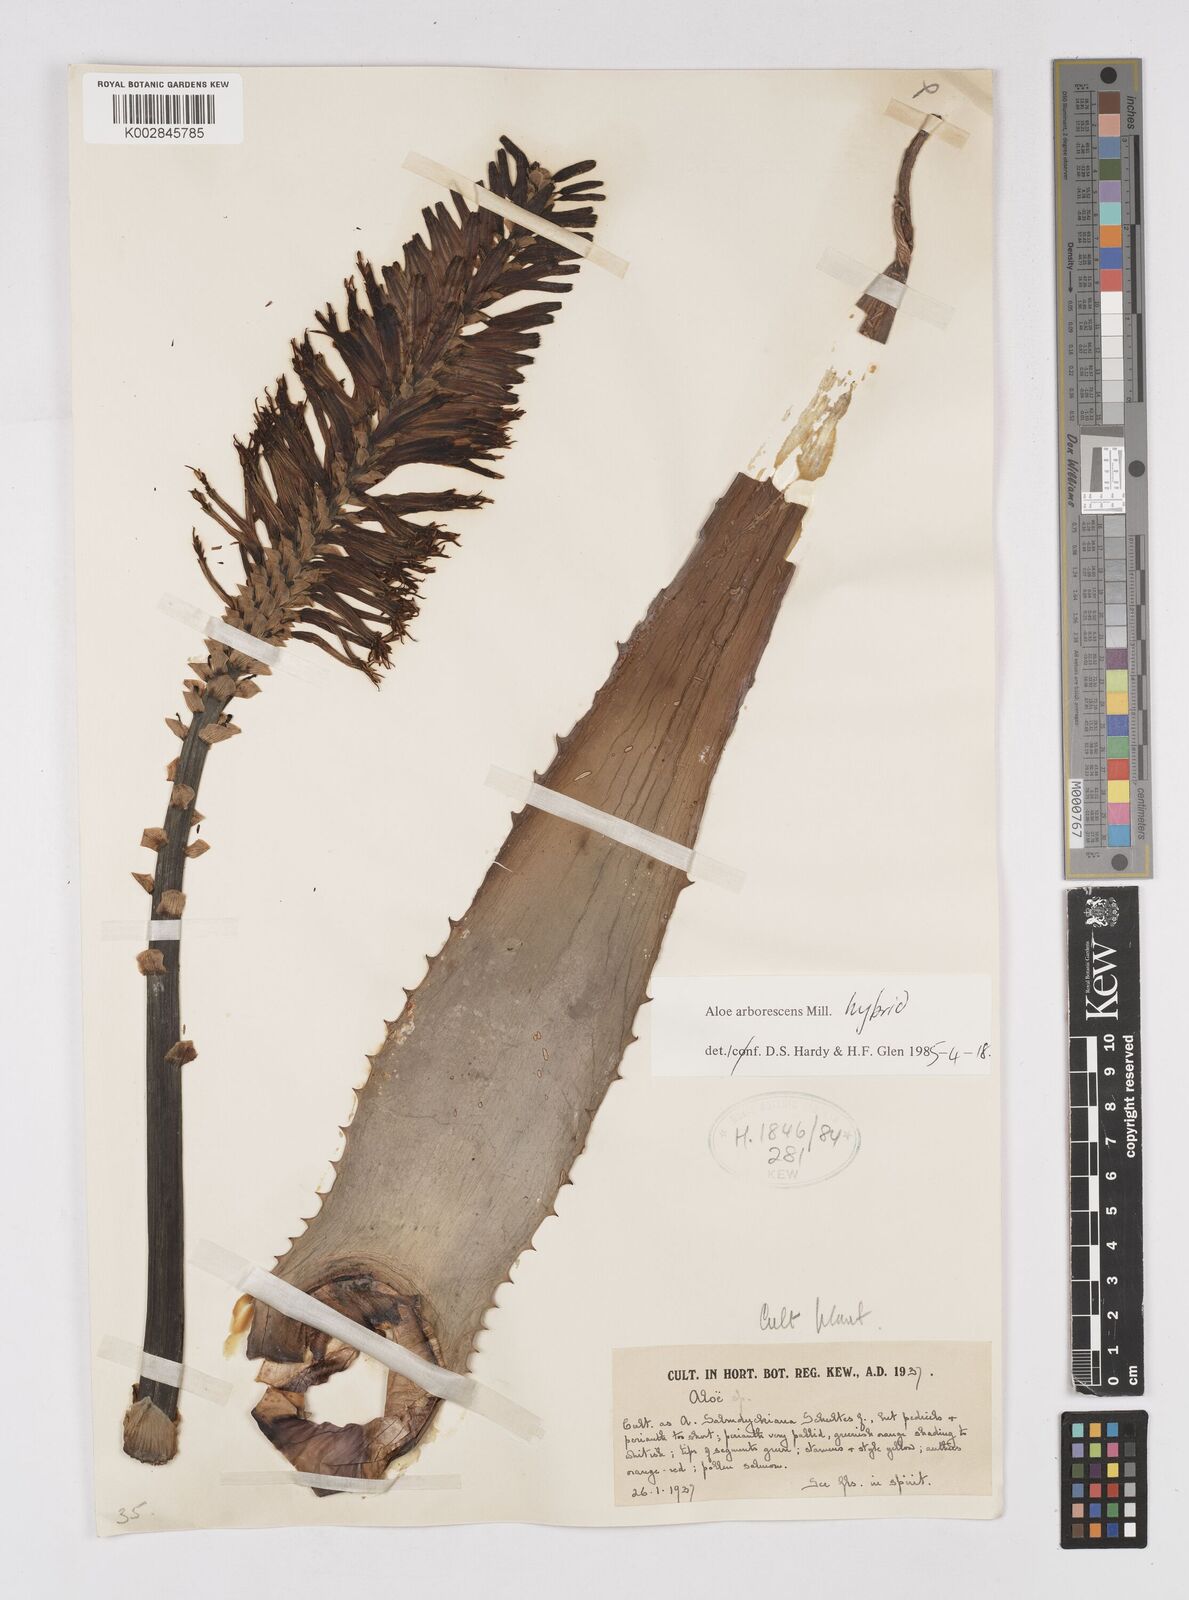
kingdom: Plantae
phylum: Tracheophyta
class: Liliopsida
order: Asparagales
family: Asphodelaceae
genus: Aloe
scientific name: Aloe arborescens
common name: Candelabra aloe
